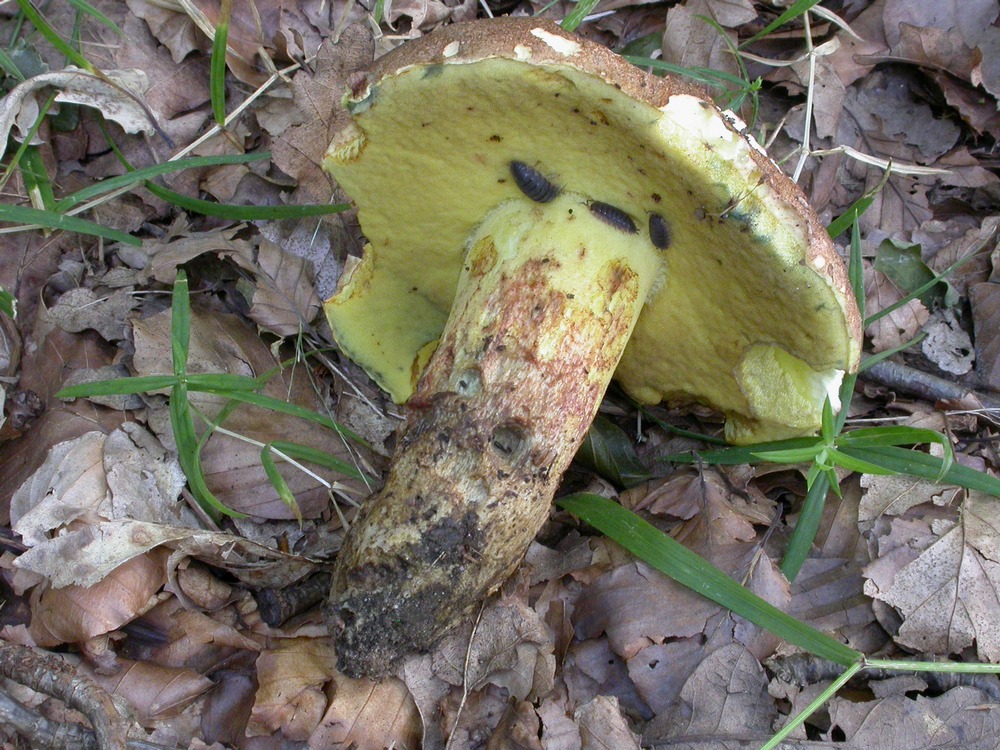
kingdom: Fungi
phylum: Basidiomycota
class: Agaricomycetes
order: Boletales
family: Boletaceae
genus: Butyriboletus
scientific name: Butyriboletus appendiculatus
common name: tenstokket rørhat
